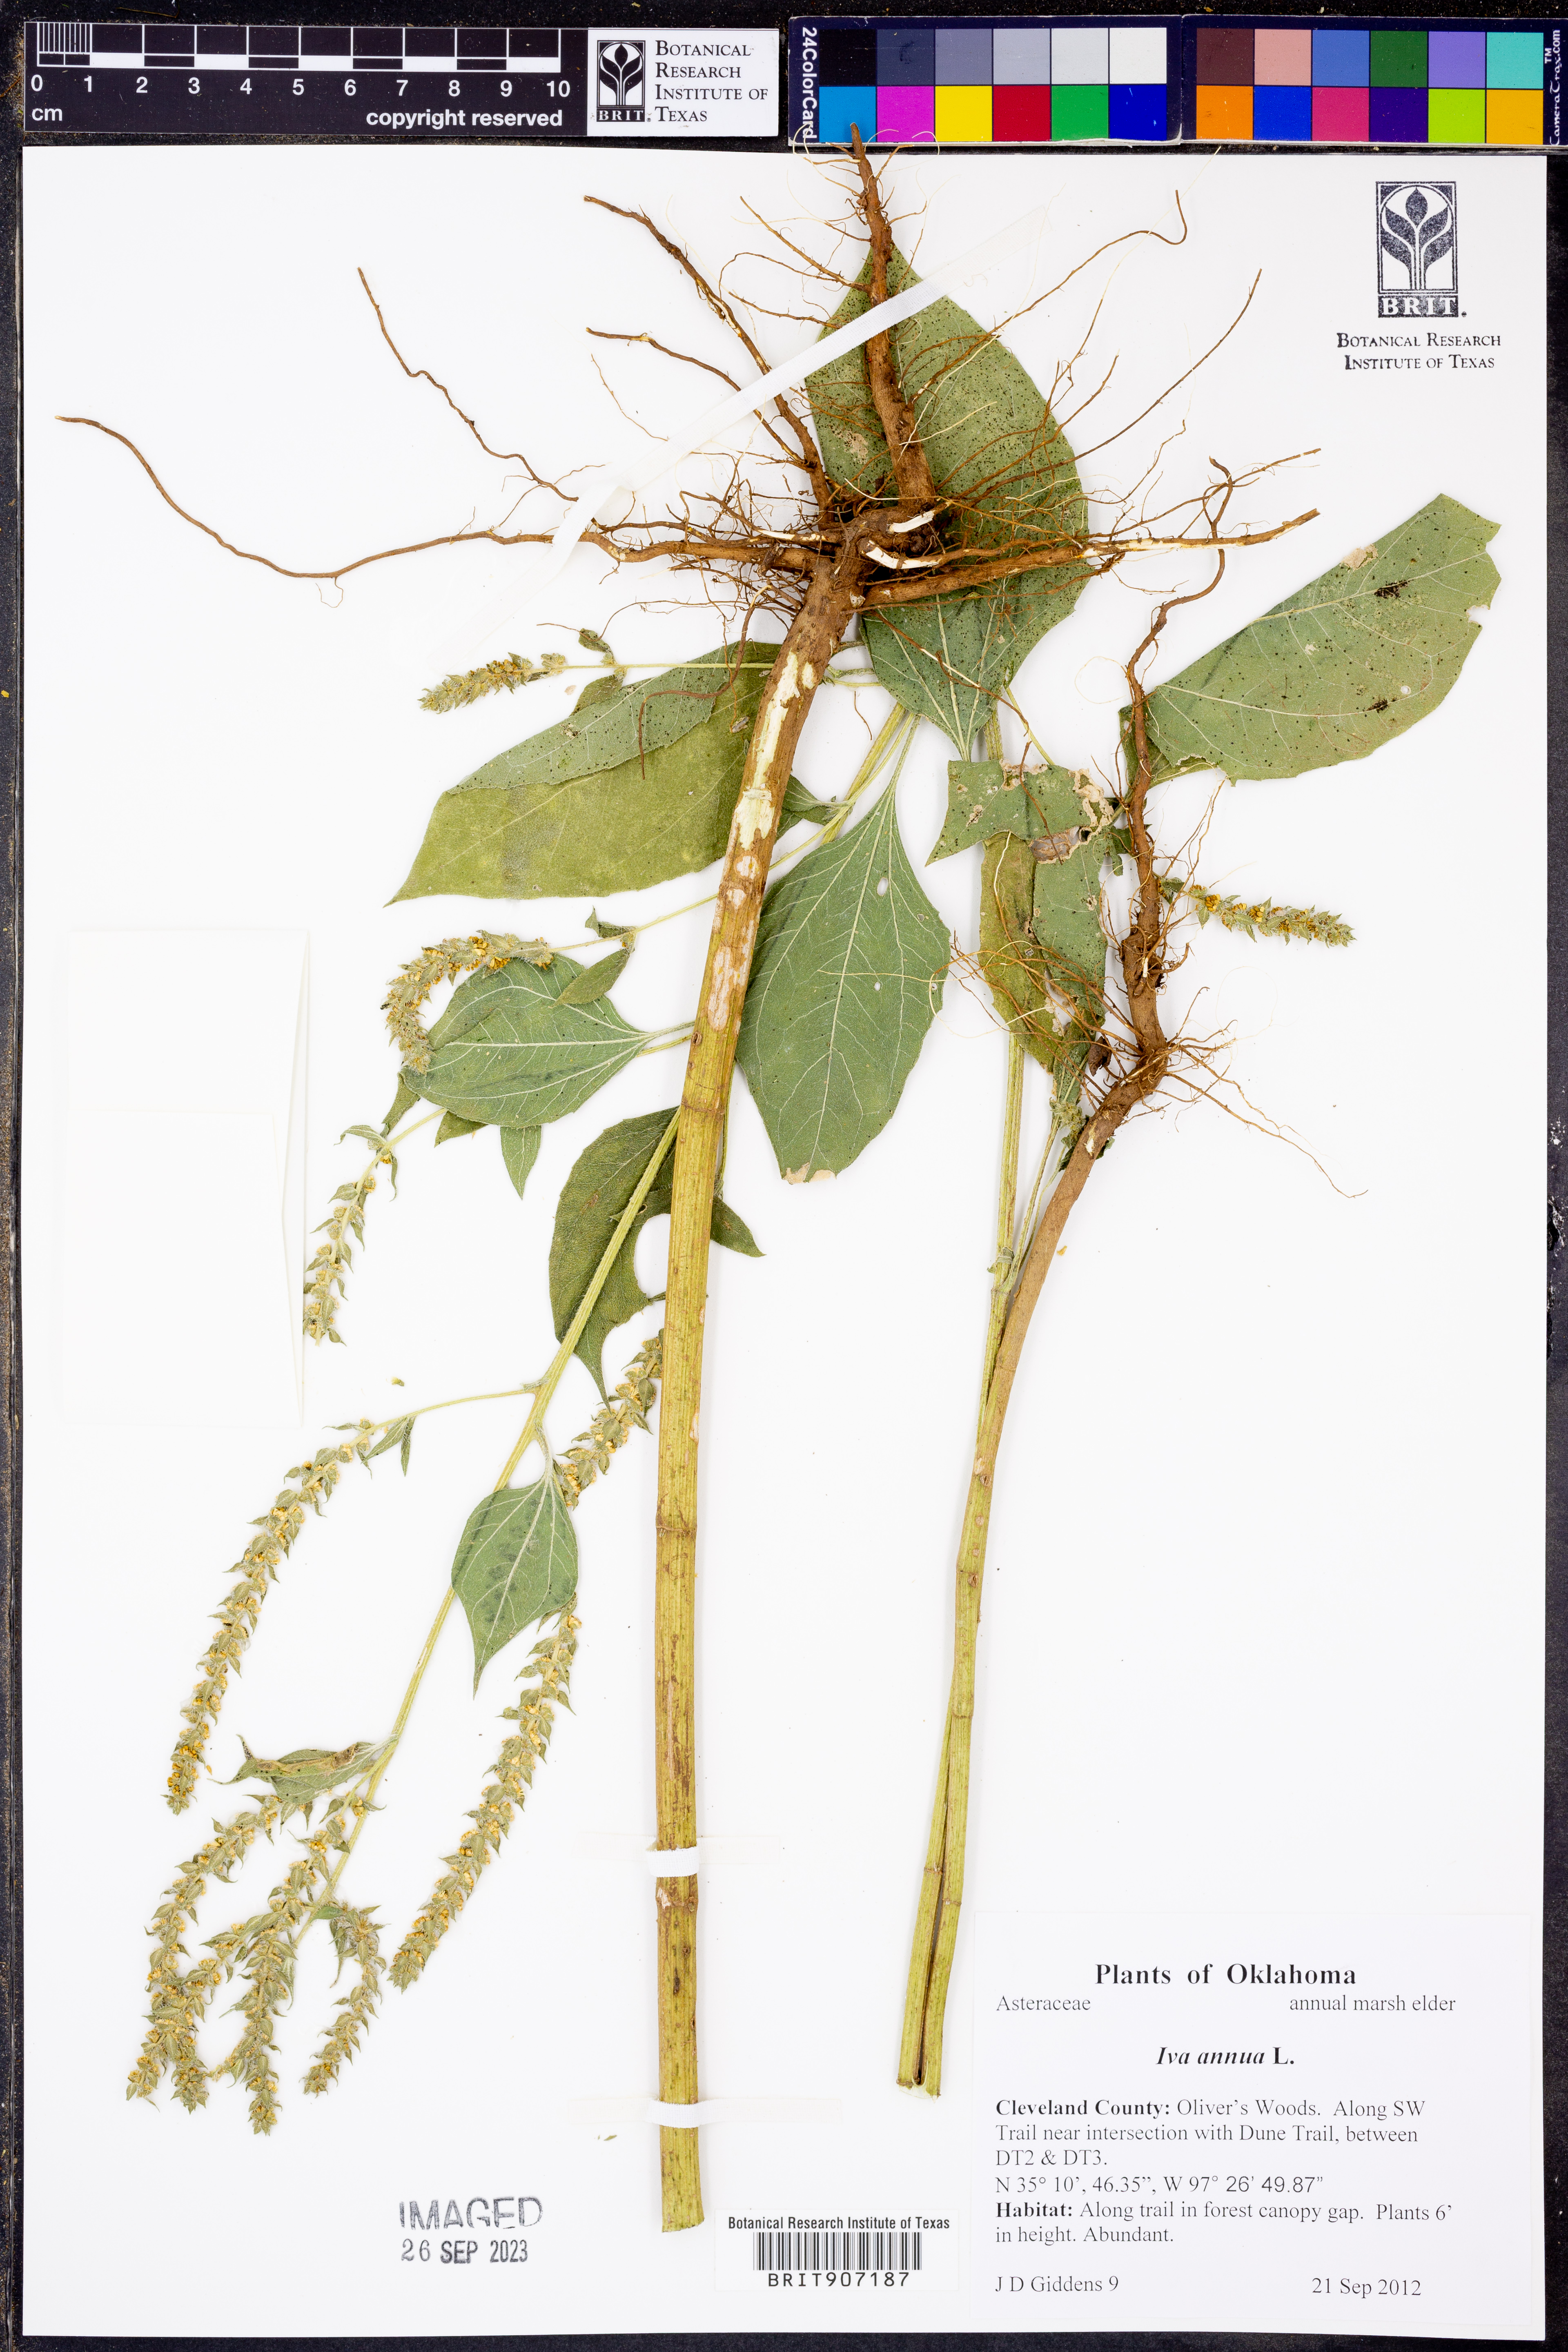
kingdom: Plantae
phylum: Tracheophyta
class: Magnoliopsida
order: Asterales
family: Asteraceae
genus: Iva
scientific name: Iva annua
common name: Marsh-elder
